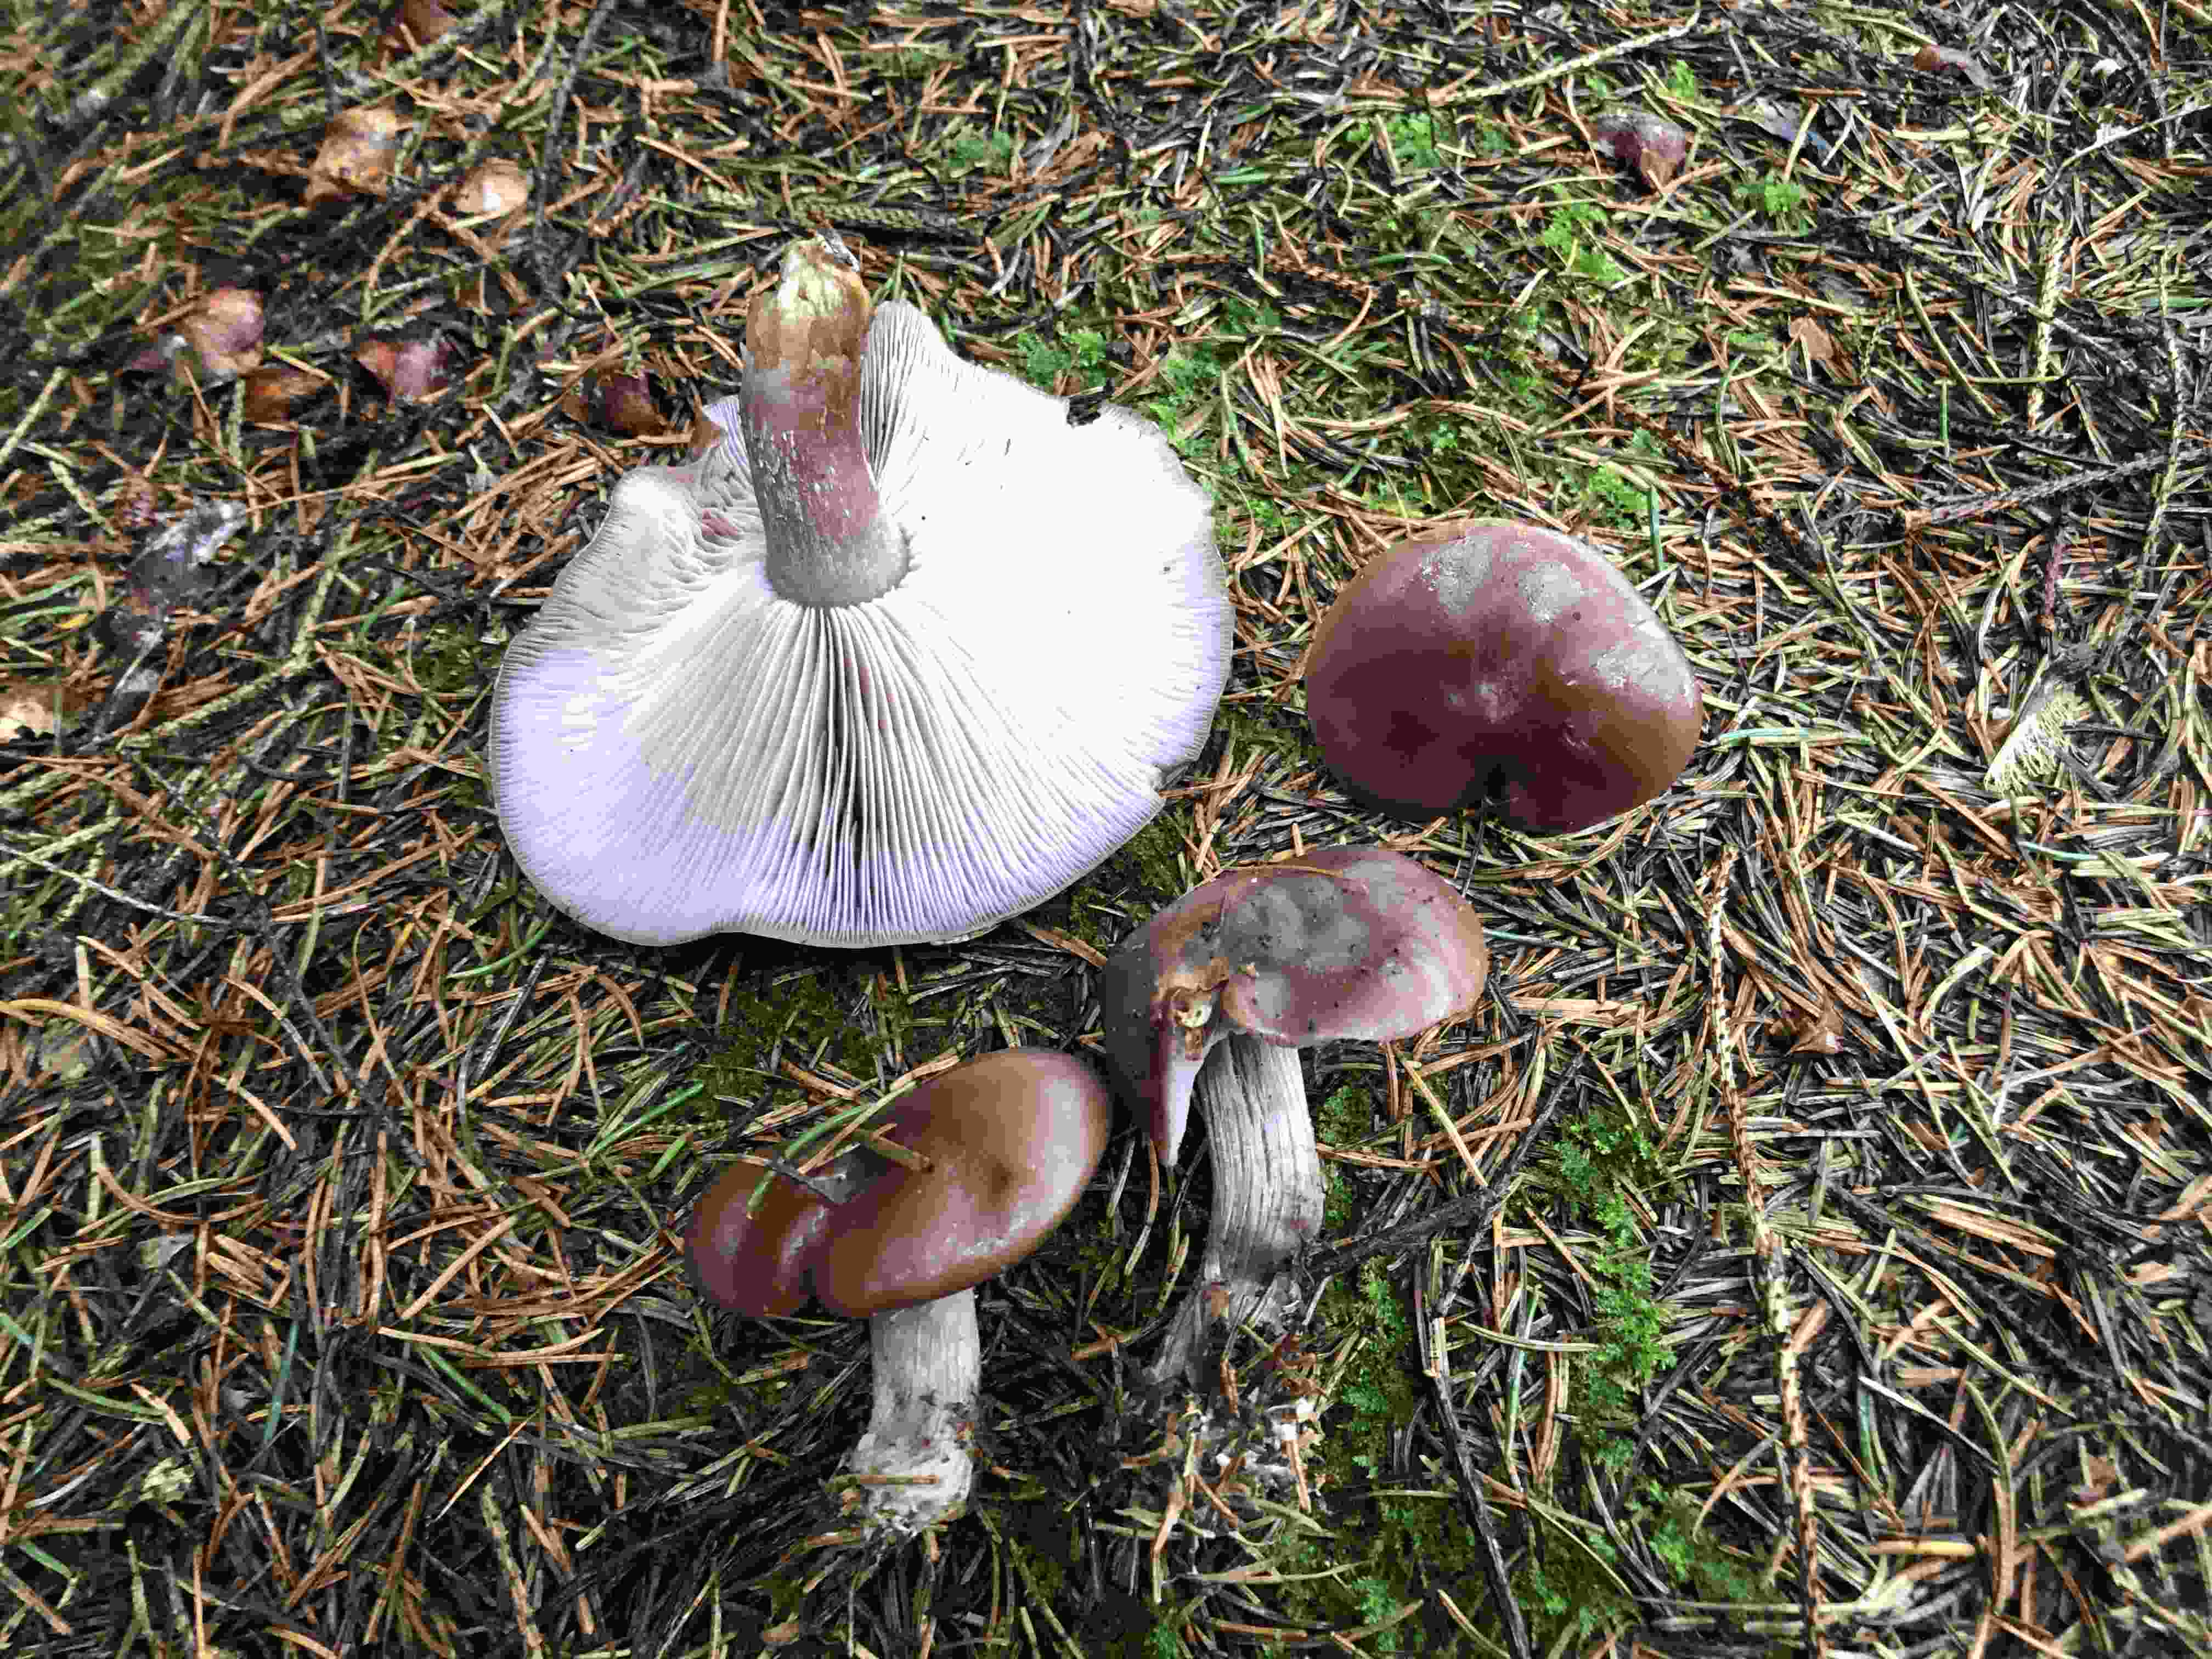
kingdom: Fungi
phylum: Basidiomycota
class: Agaricomycetes
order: Agaricales
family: Tricholomataceae
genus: Lepista
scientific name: Lepista nuda
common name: violet hekseringshat
